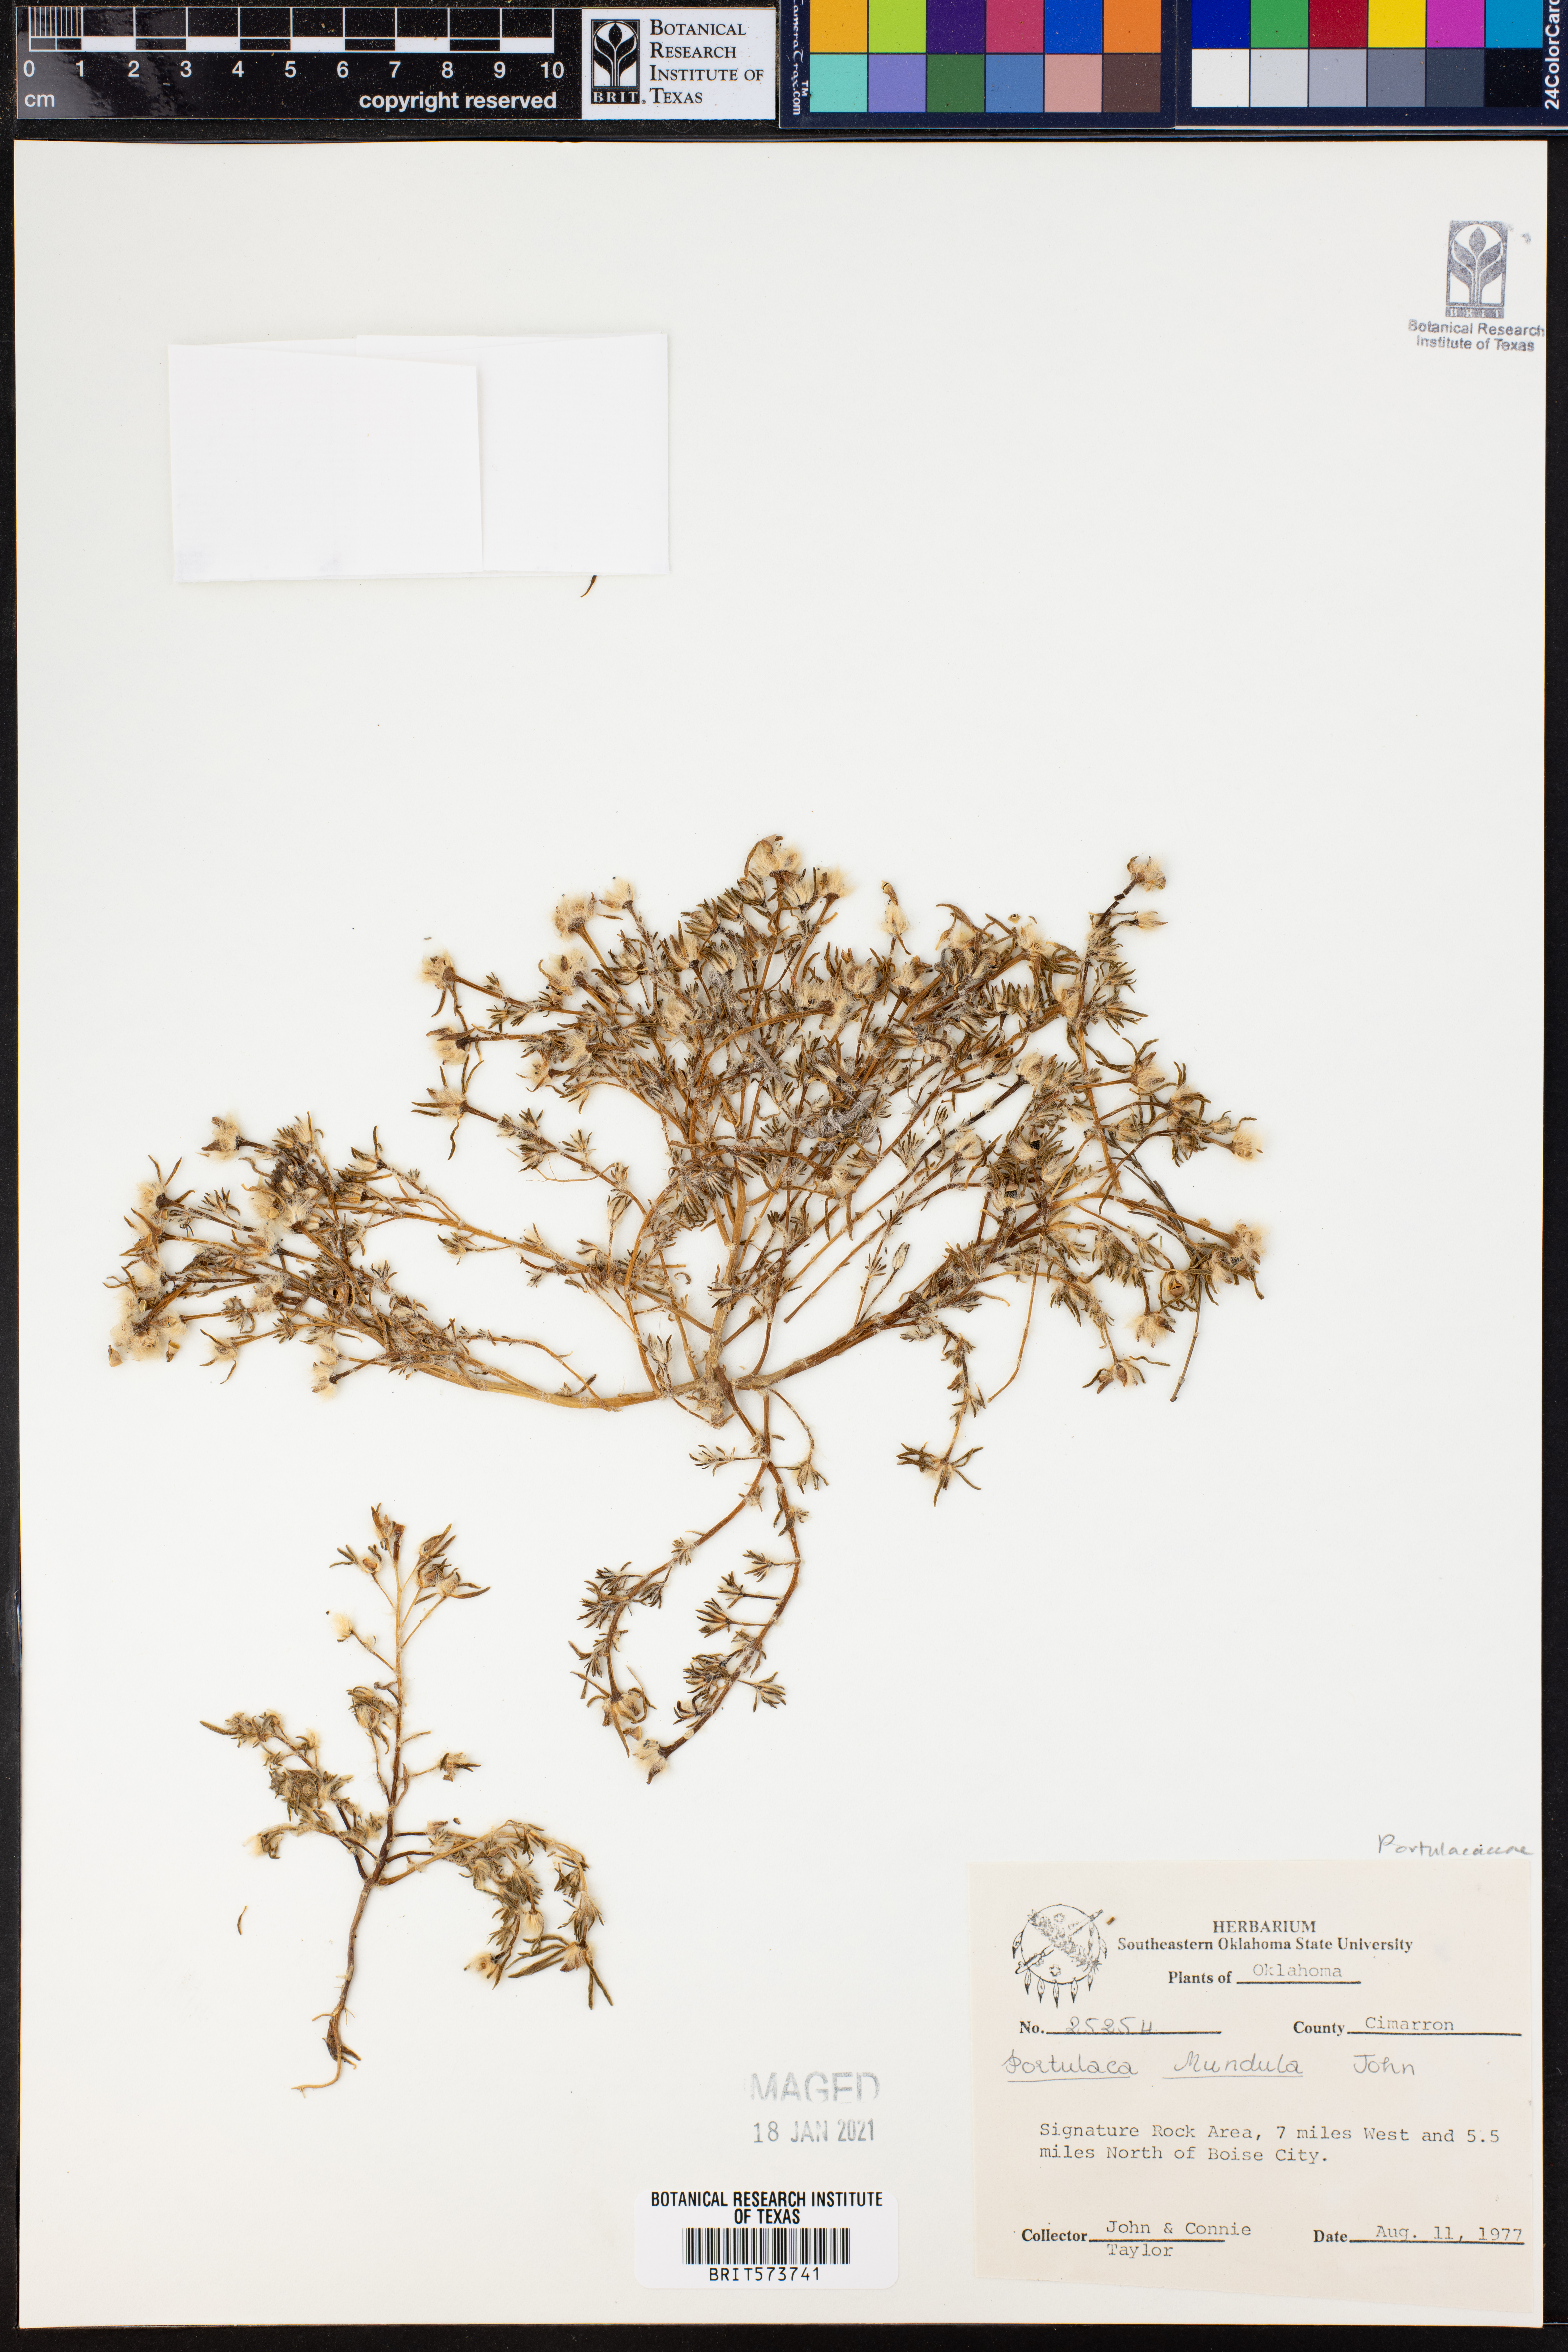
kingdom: Plantae
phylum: Tracheophyta
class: Magnoliopsida
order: Caryophyllales
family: Portulacaceae
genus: Portulaca
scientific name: Portulaca pilosa
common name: Kiss me quick
